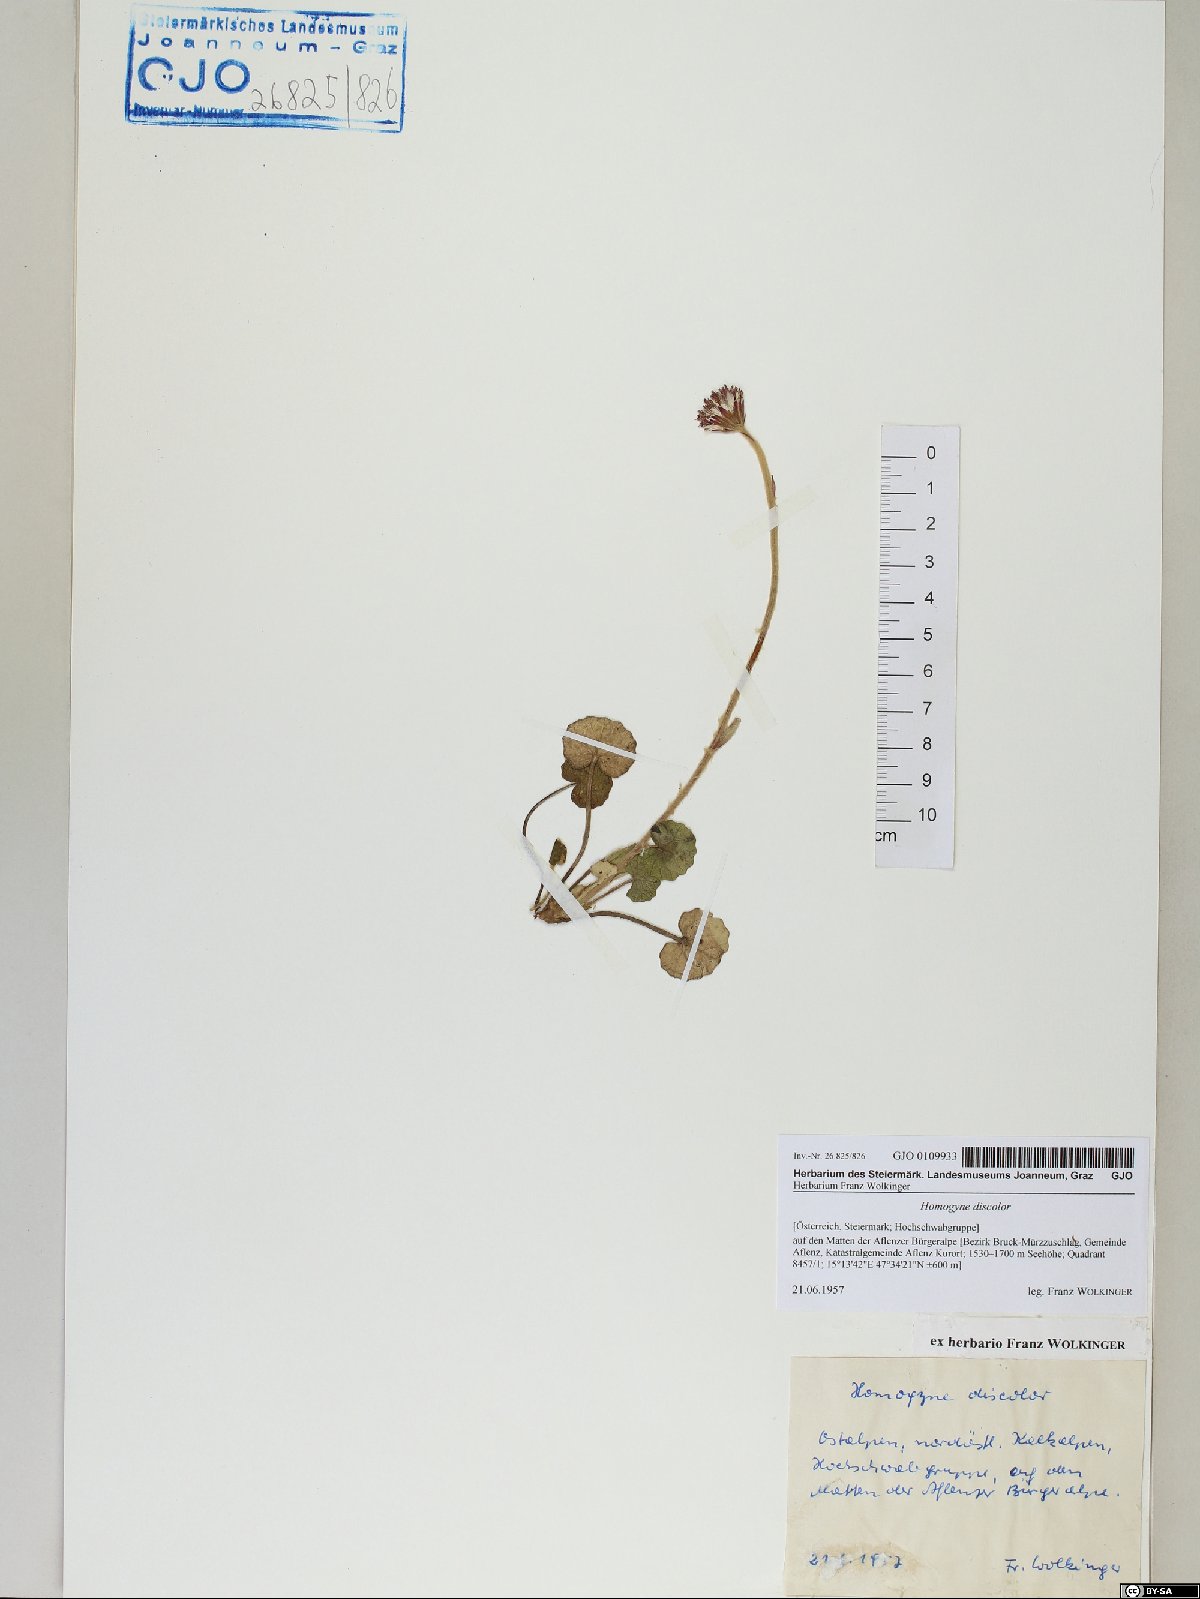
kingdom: Plantae
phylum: Tracheophyta
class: Magnoliopsida
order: Asterales
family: Asteraceae
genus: Homogyne
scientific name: Homogyne discolor
